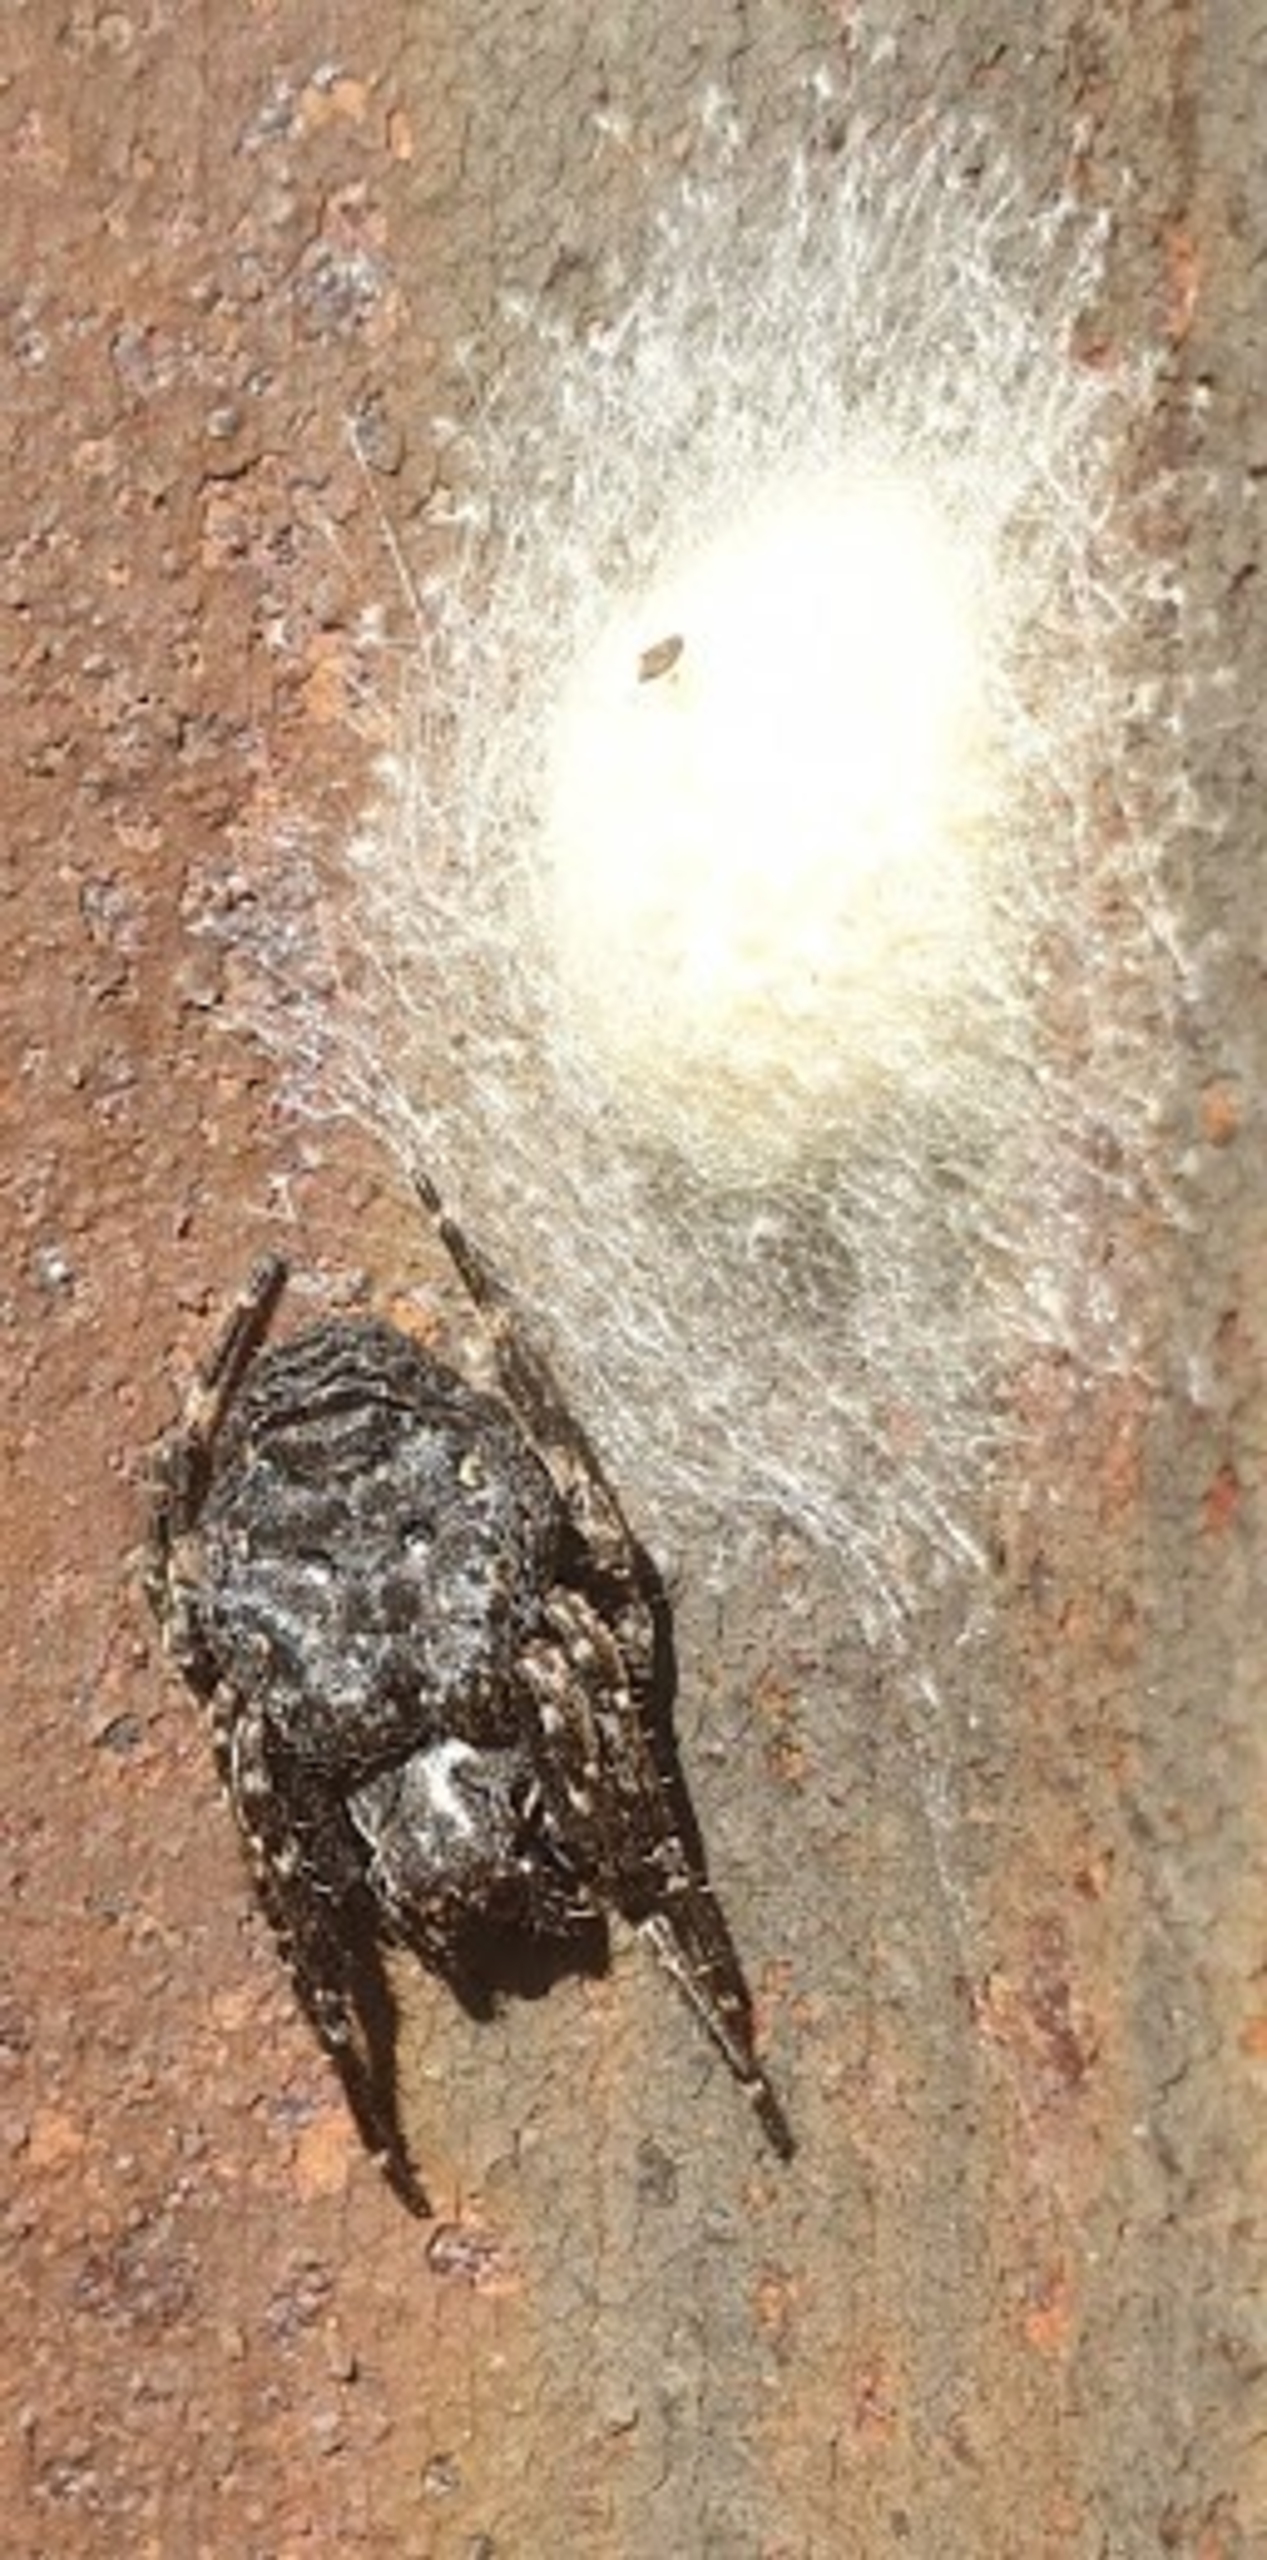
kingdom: Animalia
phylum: Arthropoda
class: Arachnida
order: Araneae
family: Araneidae
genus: Nuctenea
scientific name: Nuctenea umbratica
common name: Flad hjulspinder
